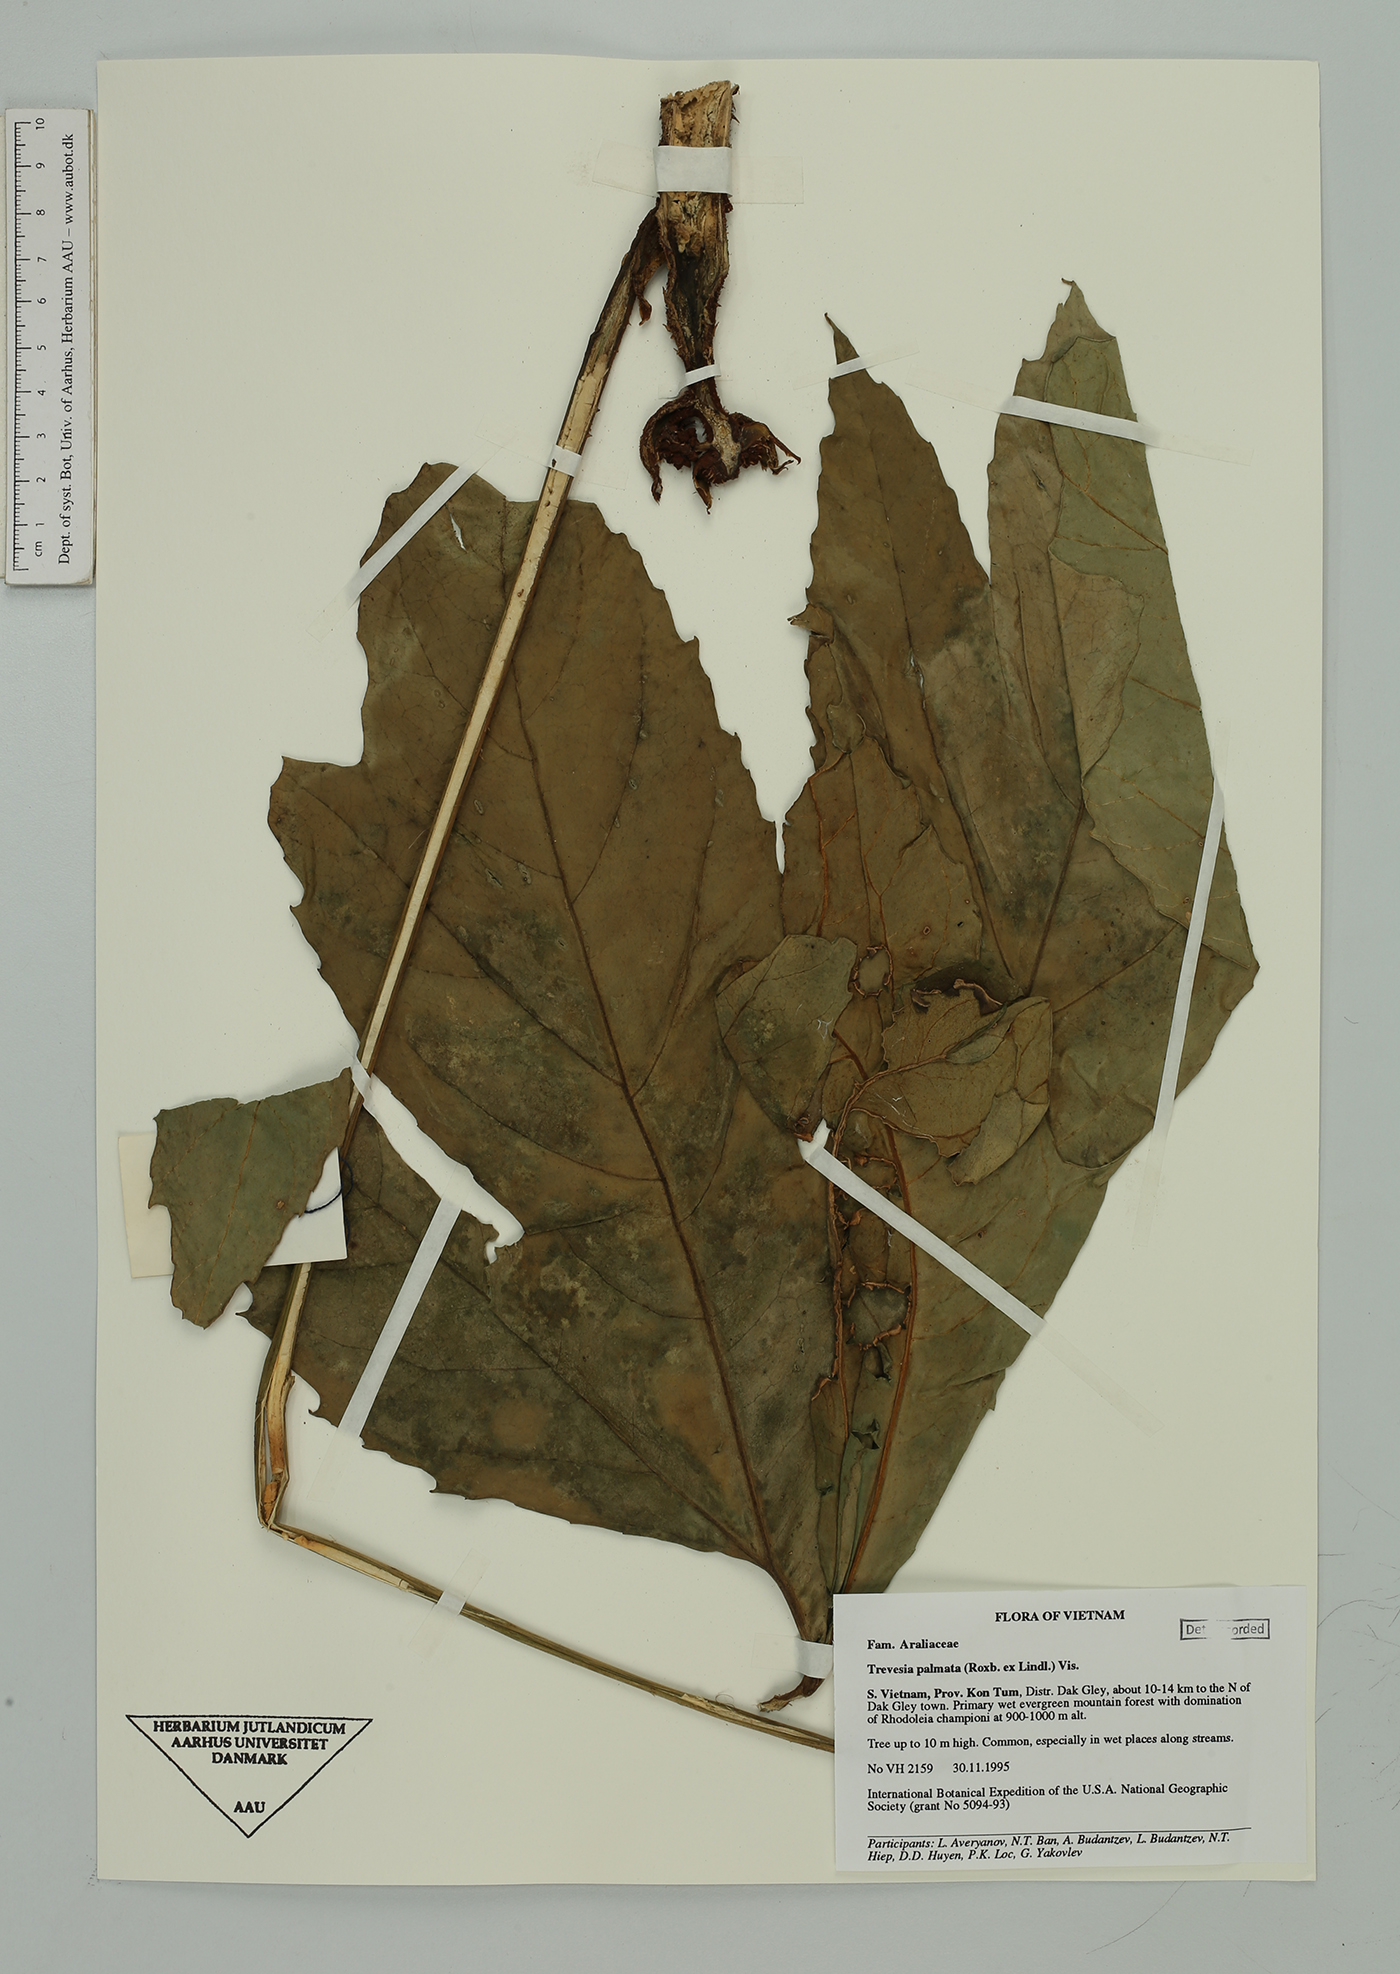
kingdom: Plantae
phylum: Tracheophyta
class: Magnoliopsida
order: Apiales
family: Araliaceae
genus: Trevesia
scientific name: Trevesia palmata
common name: Snowflakeplant
